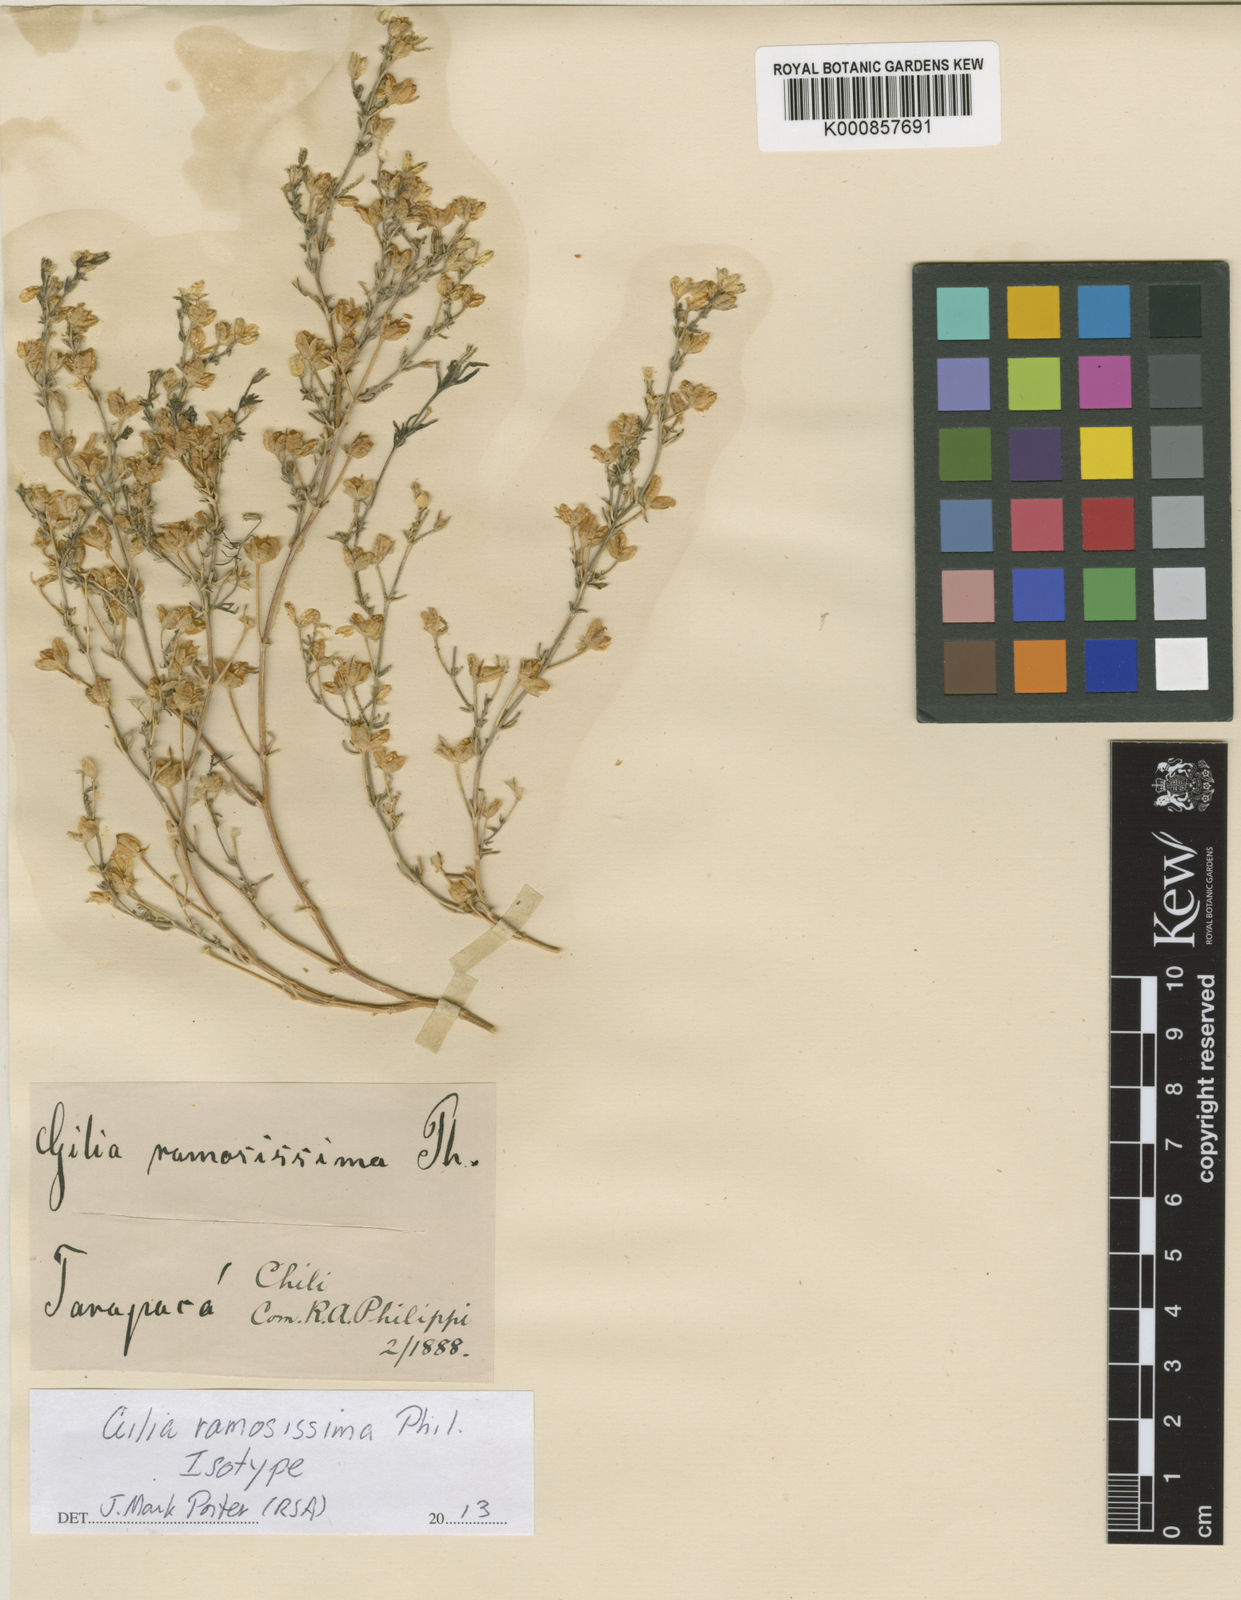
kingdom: Plantae
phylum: Tracheophyta
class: Magnoliopsida
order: Ericales
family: Polemoniaceae
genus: Dayia
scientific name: Dayia glutinosa
